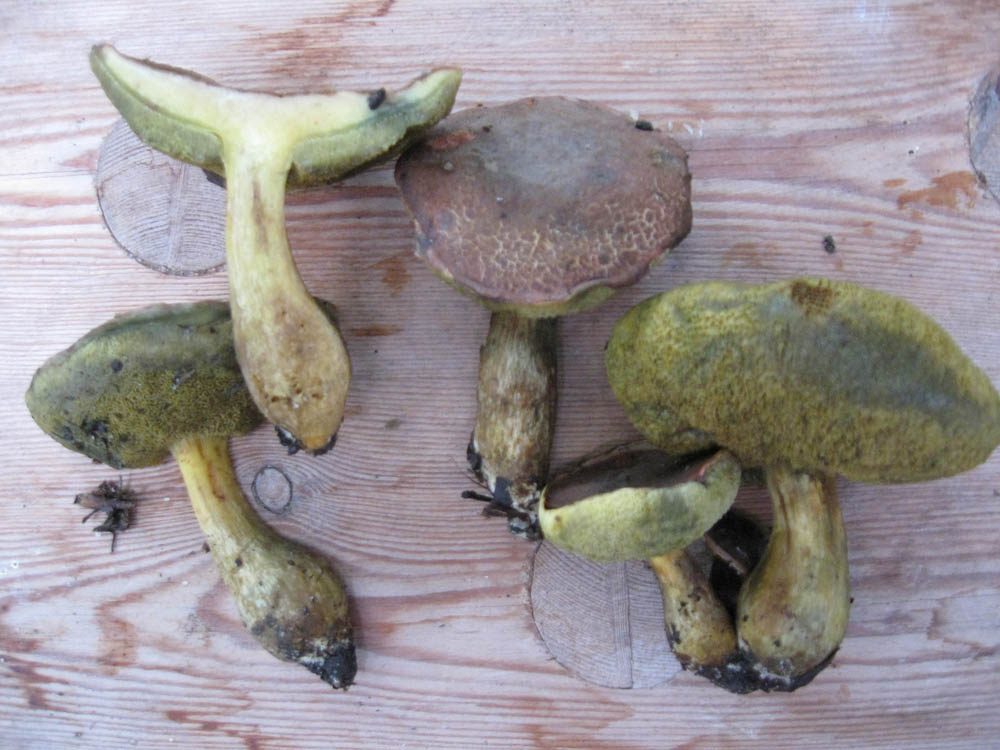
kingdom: Fungi
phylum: Basidiomycota
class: Agaricomycetes
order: Boletales
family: Boletaceae
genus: Hortiboletus
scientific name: Hortiboletus engelii
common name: fersken-rørhat
